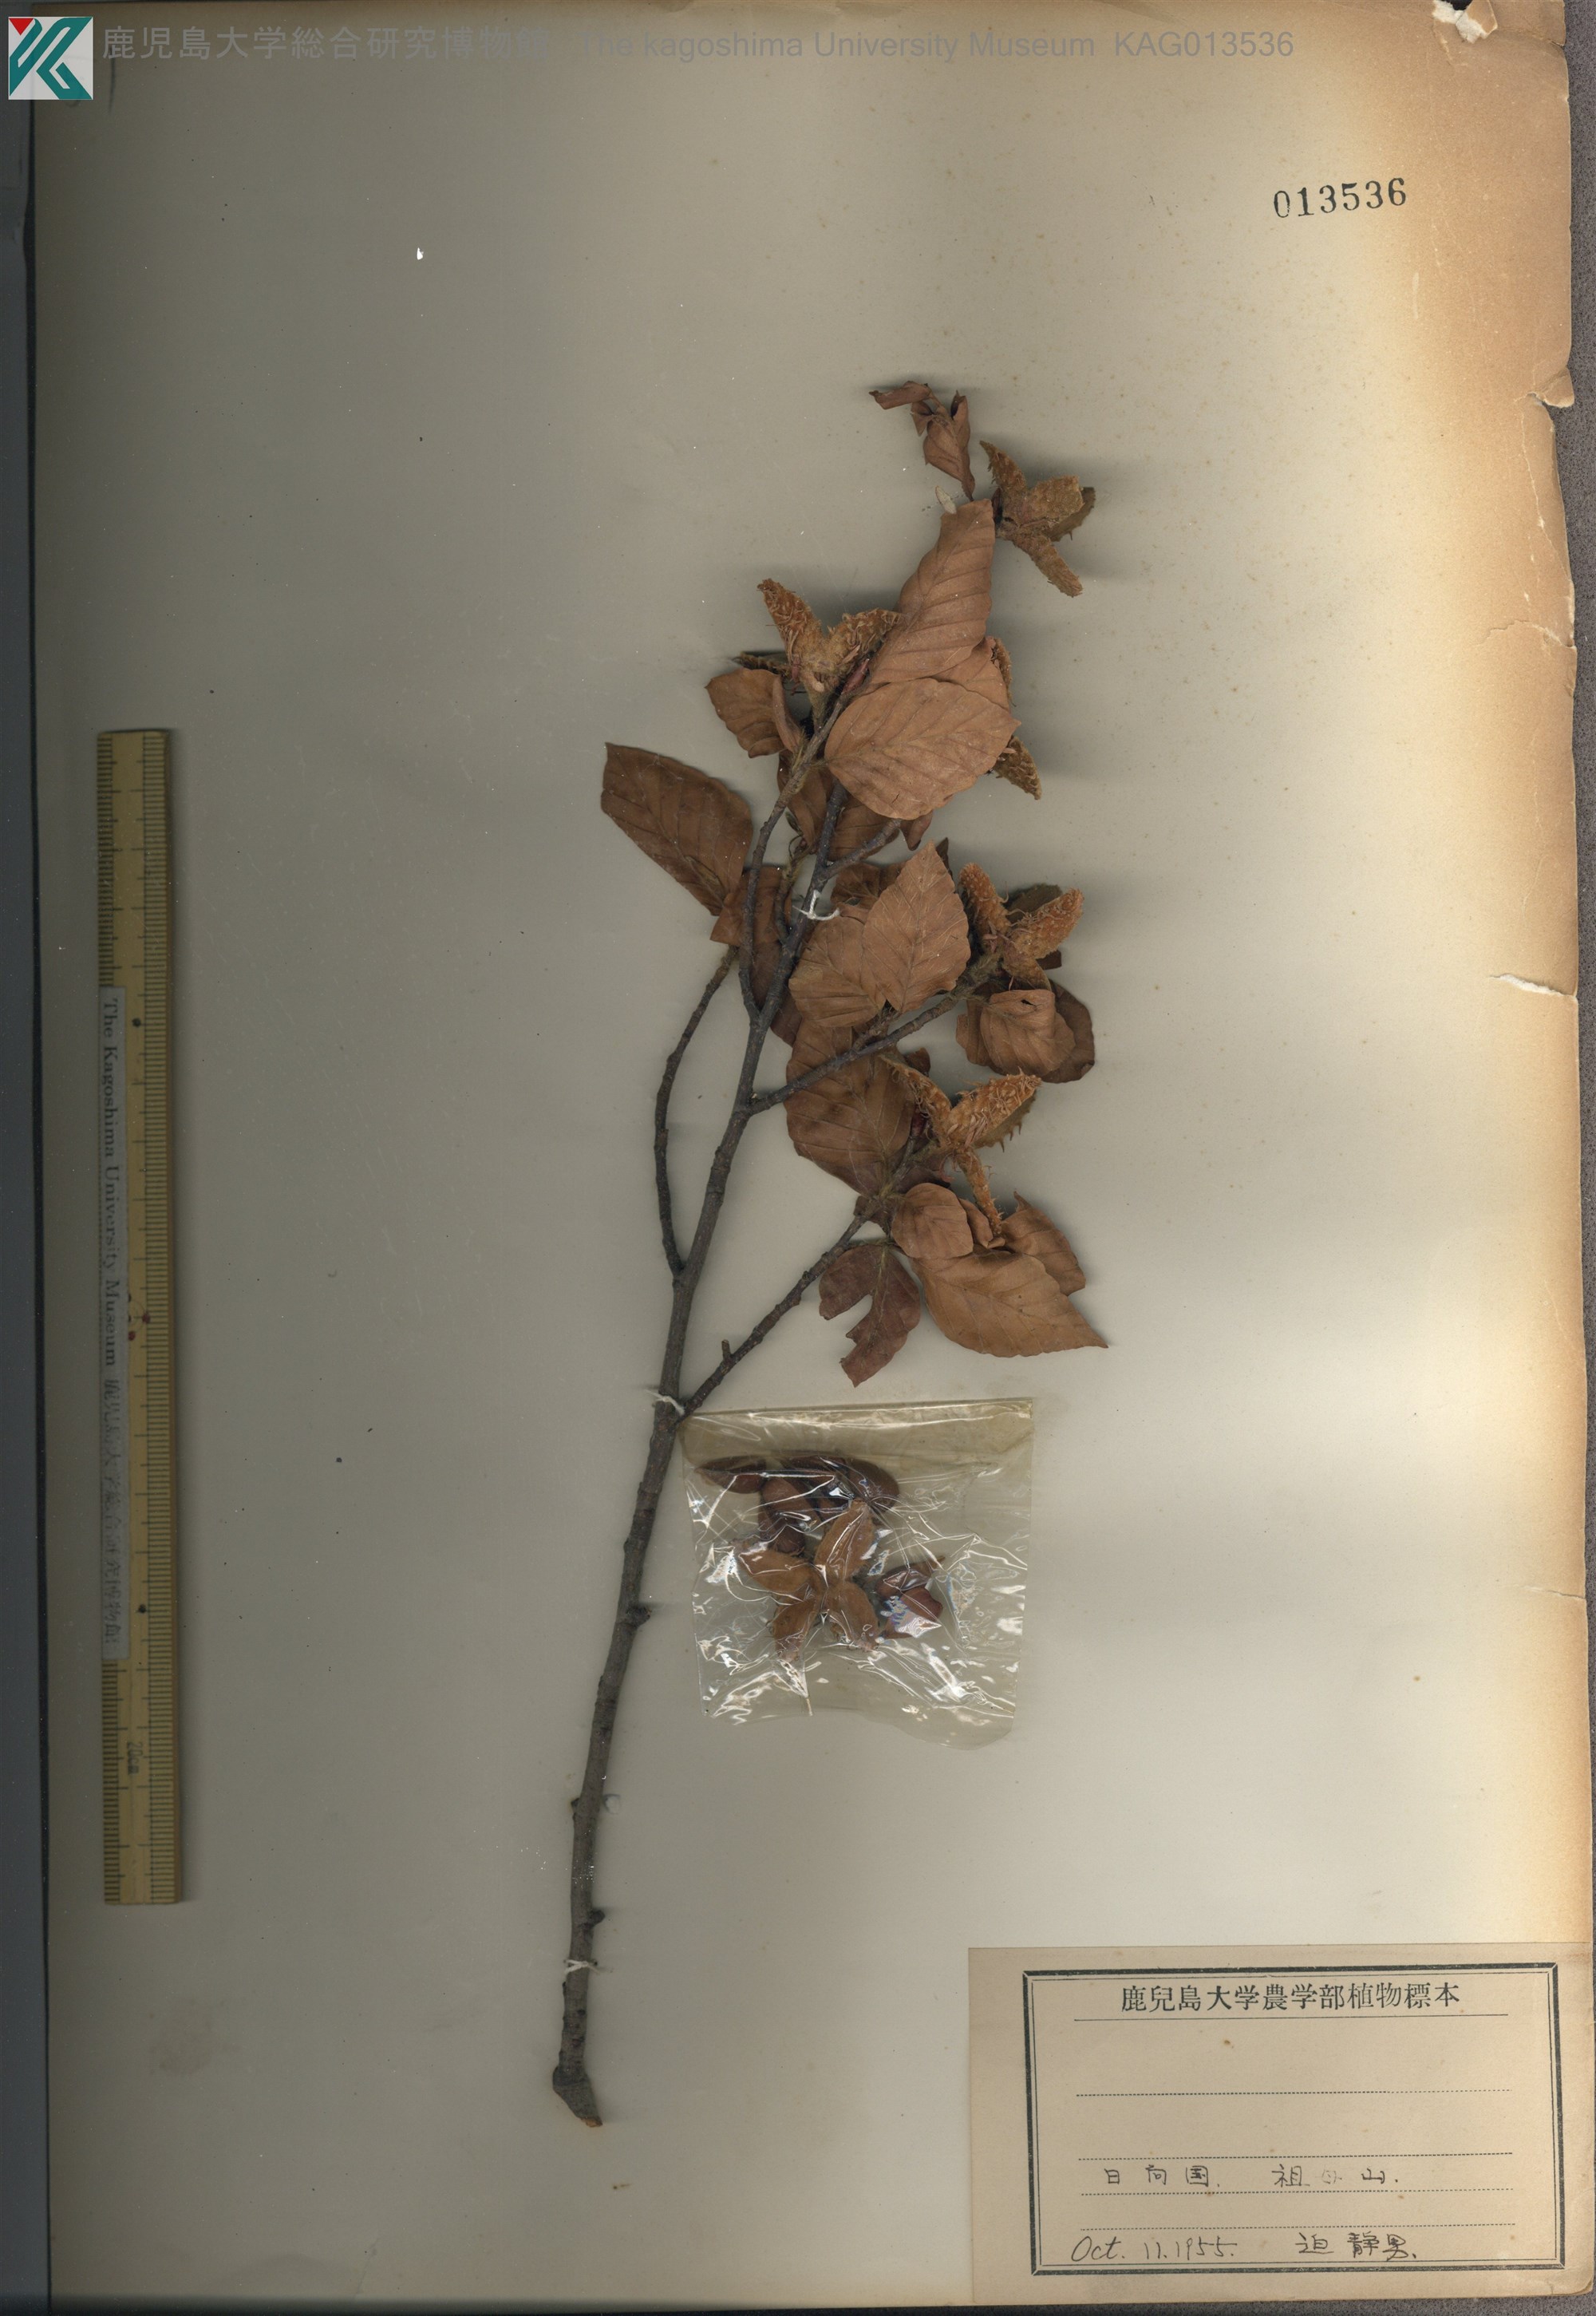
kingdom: Plantae
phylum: Tracheophyta
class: Magnoliopsida
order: Fagales
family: Fagaceae
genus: Fagus
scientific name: Fagus crenata
